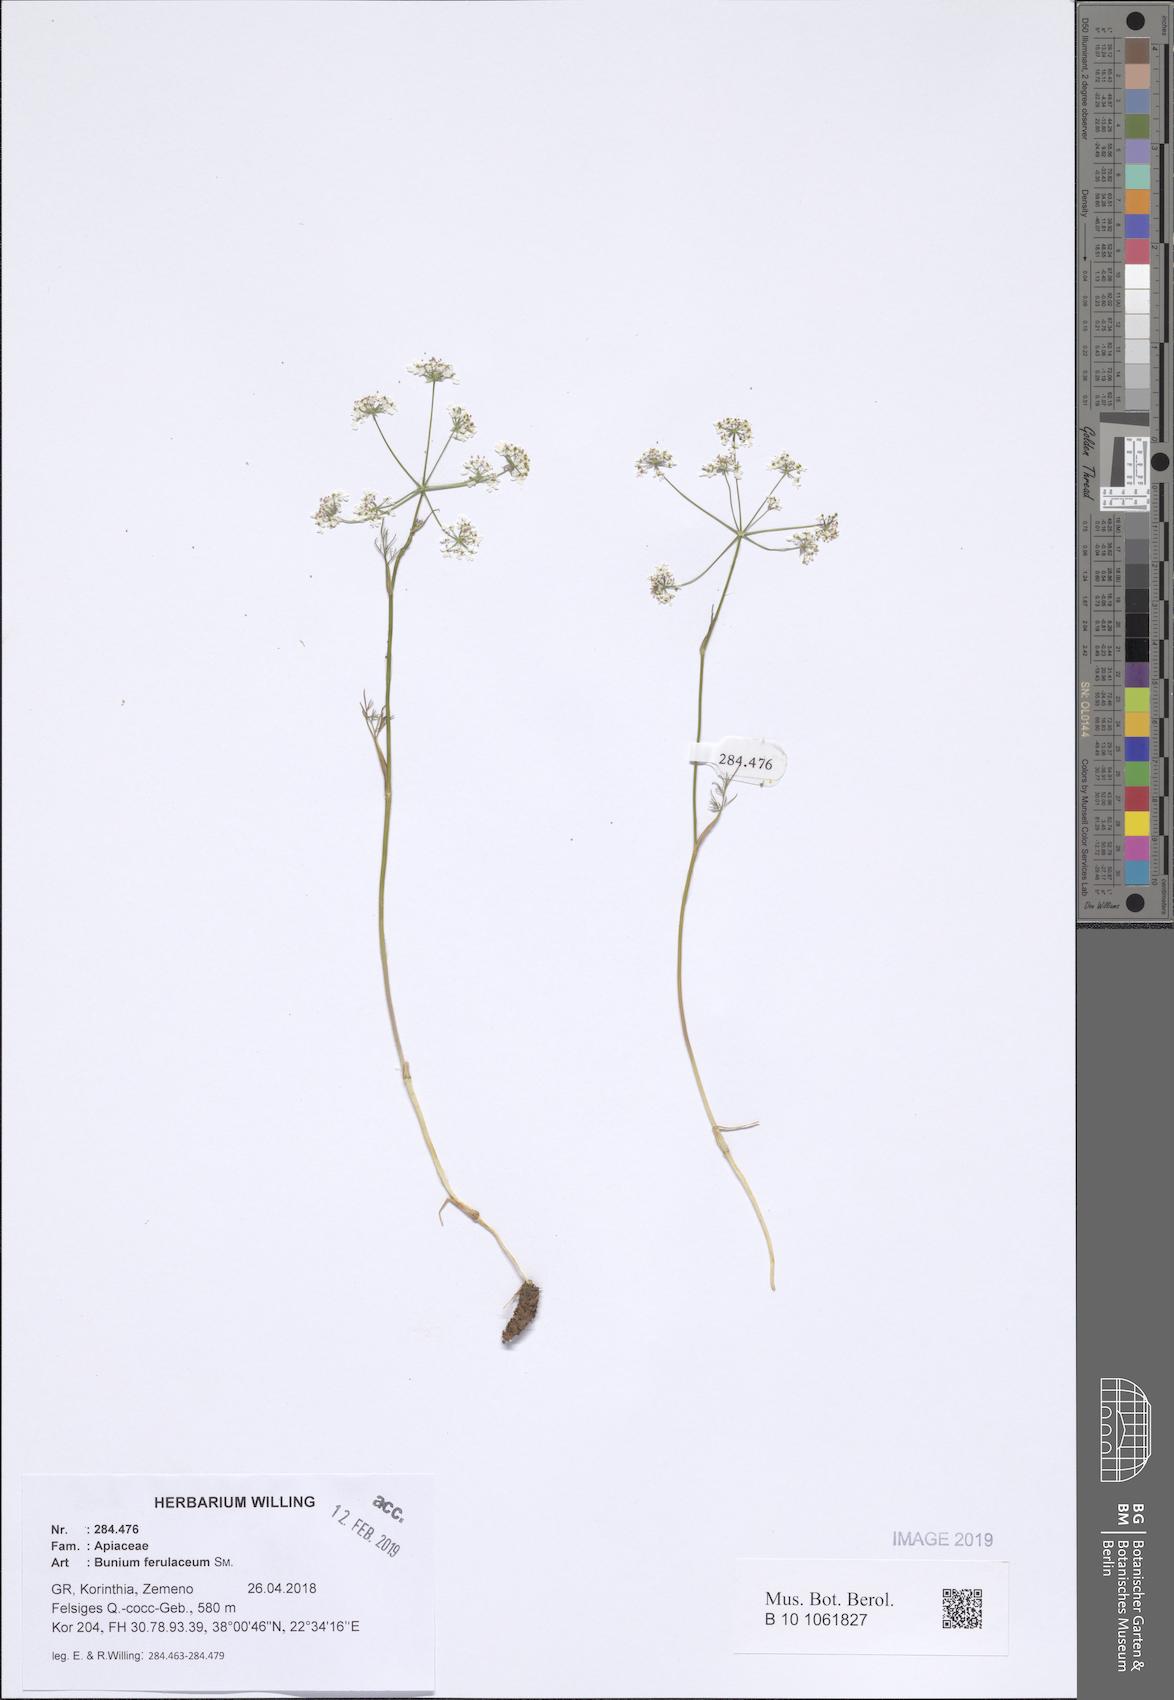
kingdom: Plantae
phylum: Tracheophyta
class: Magnoliopsida
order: Apiales
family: Apiaceae
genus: Bunium
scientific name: Bunium ferulaceum
